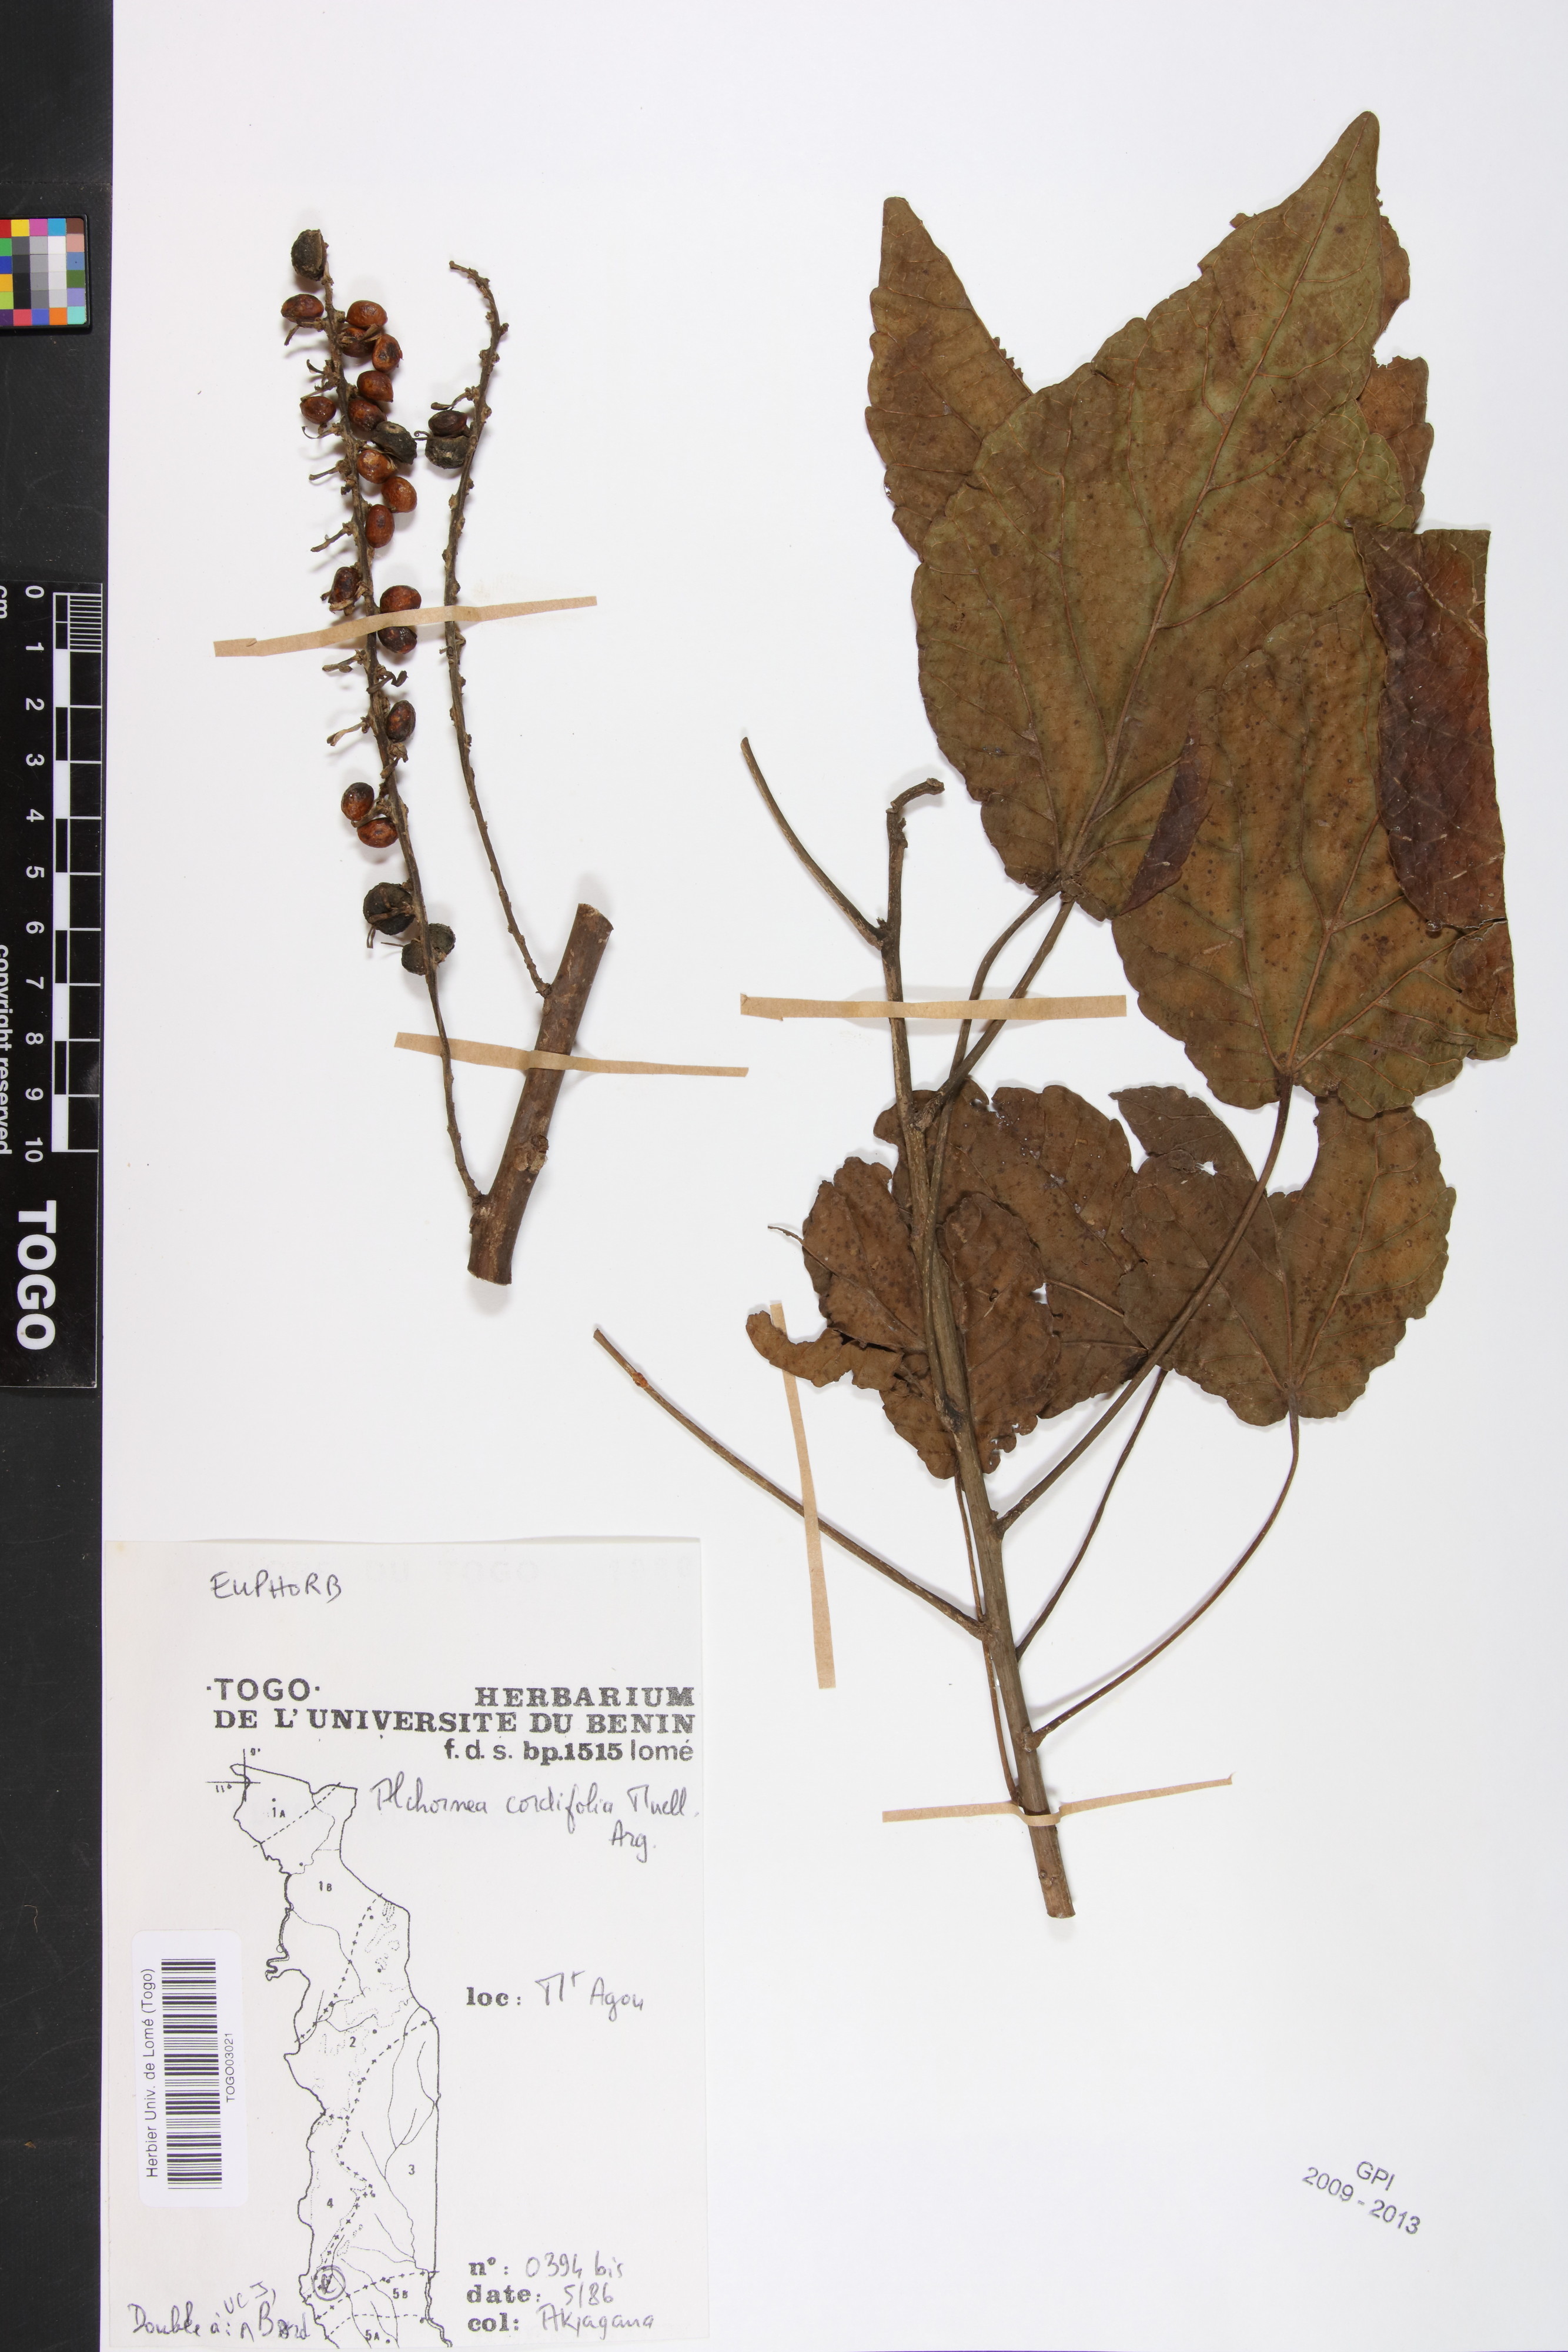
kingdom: Plantae
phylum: Tracheophyta
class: Magnoliopsida
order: Malpighiales
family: Euphorbiaceae
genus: Alchornea
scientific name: Alchornea cordifolia
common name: Christmasbush
